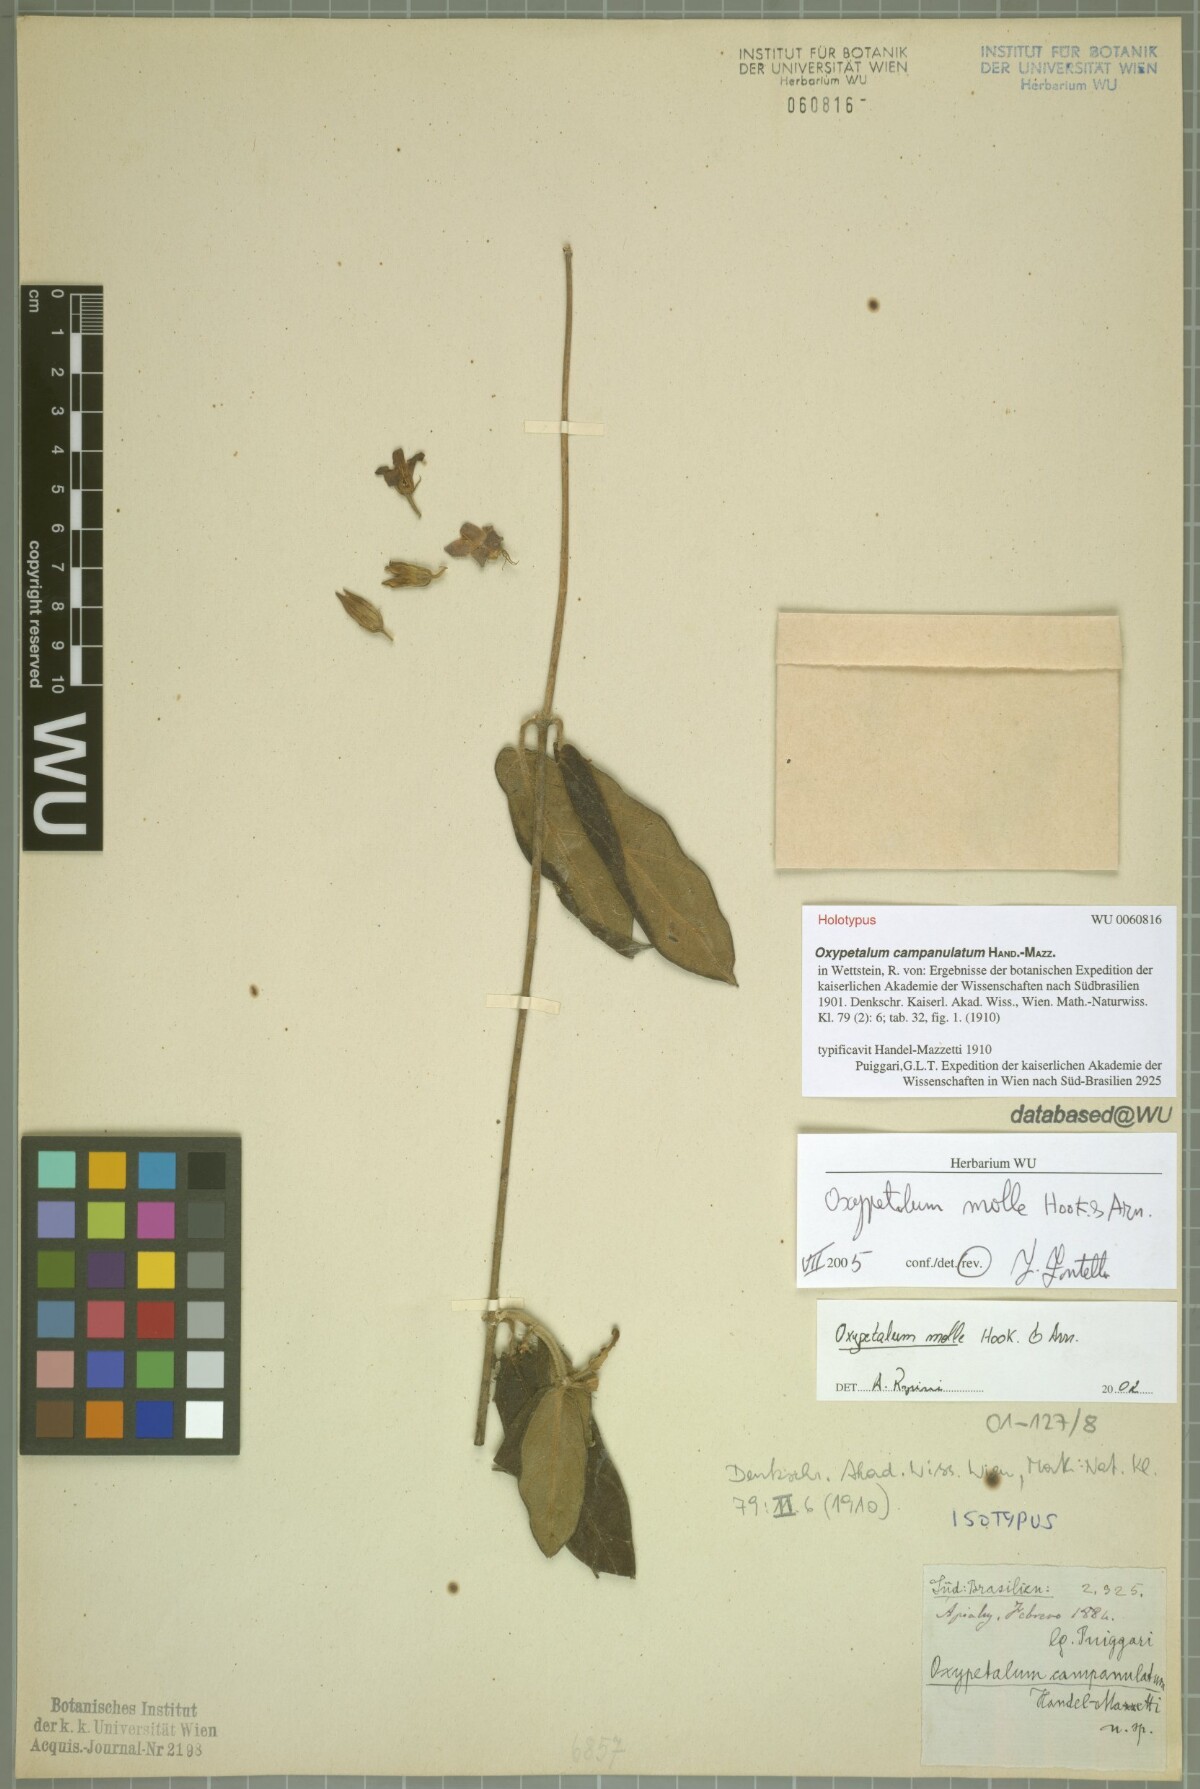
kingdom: Plantae
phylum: Tracheophyta
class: Magnoliopsida
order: Gentianales
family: Apocynaceae
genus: Oxypetalum
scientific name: Oxypetalum molle
